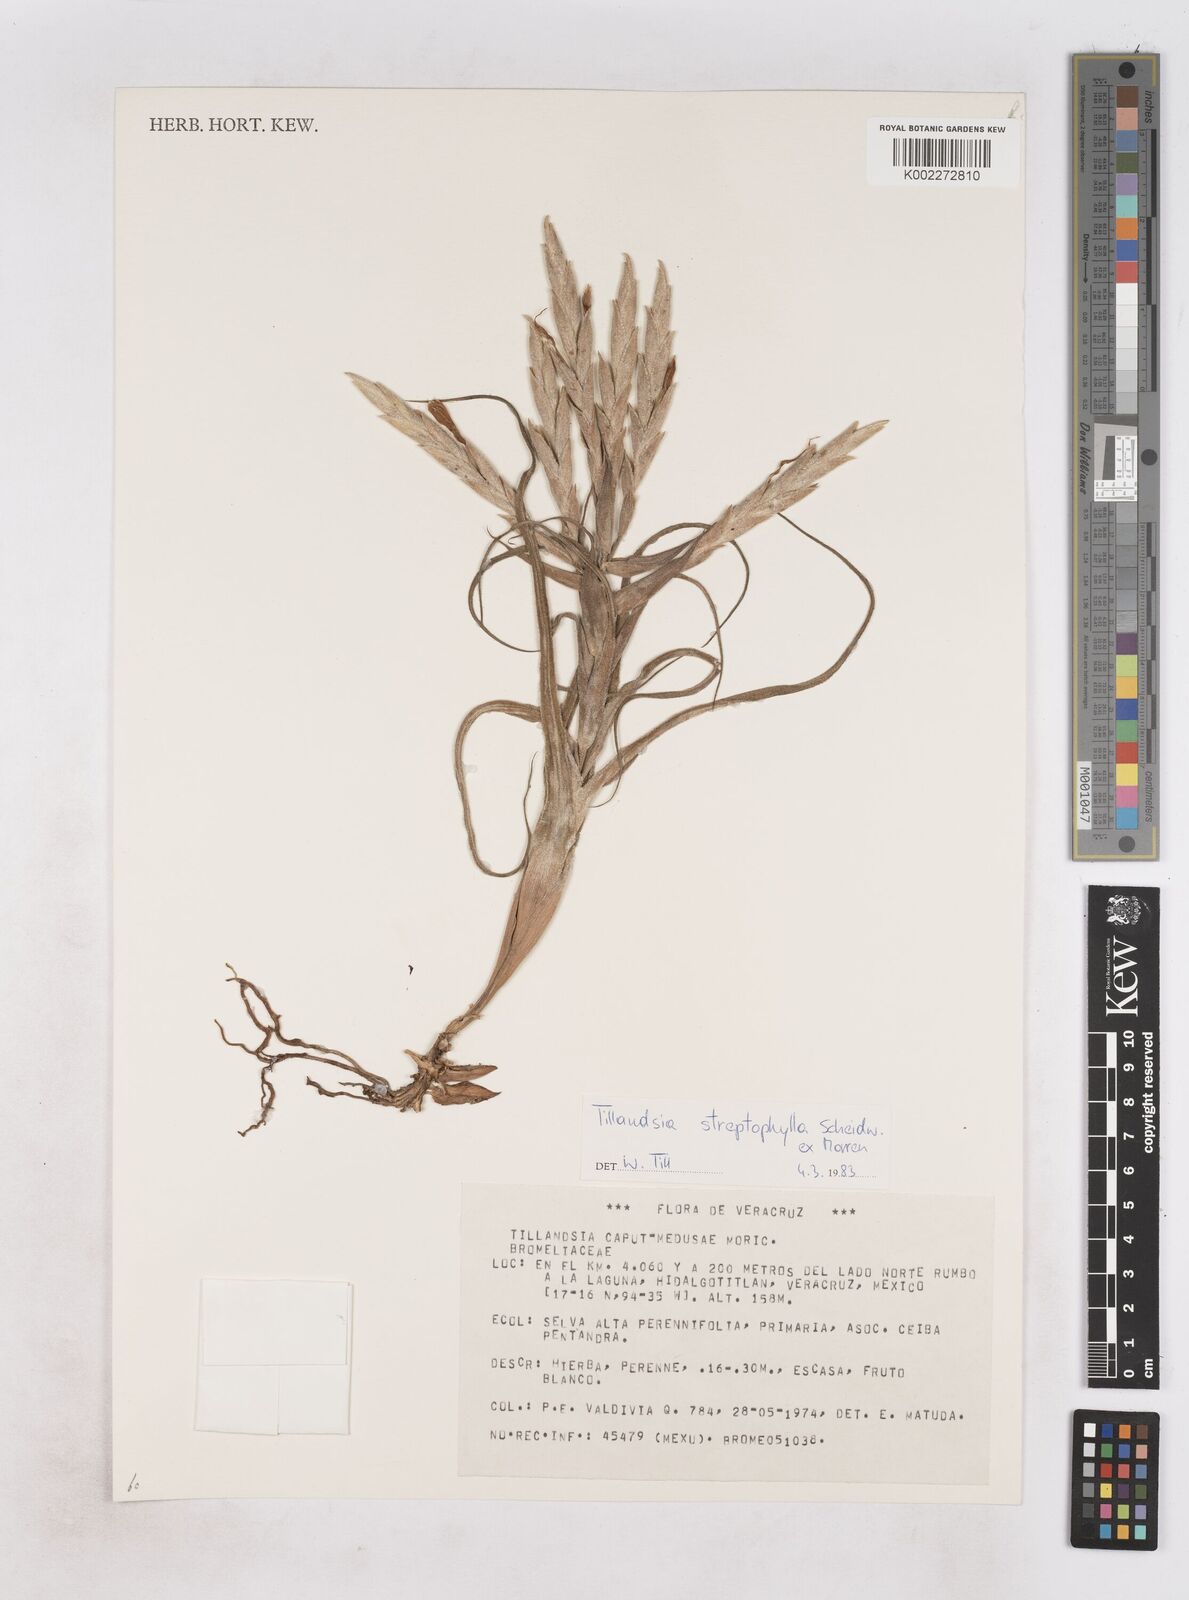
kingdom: Plantae
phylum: Tracheophyta
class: Liliopsida
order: Poales
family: Bromeliaceae
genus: Tillandsia
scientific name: Tillandsia streptophylla
